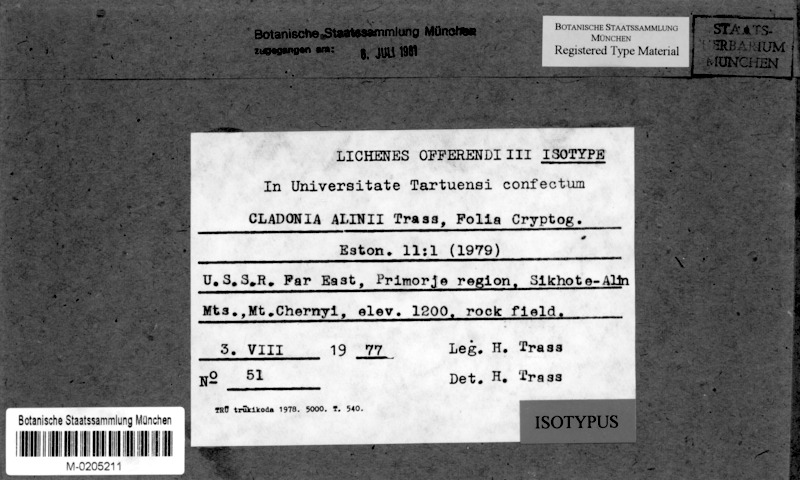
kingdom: Fungi
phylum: Ascomycota
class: Lecanoromycetes
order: Lecanorales
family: Cladoniaceae
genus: Cladonia
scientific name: Cladonia alinii
